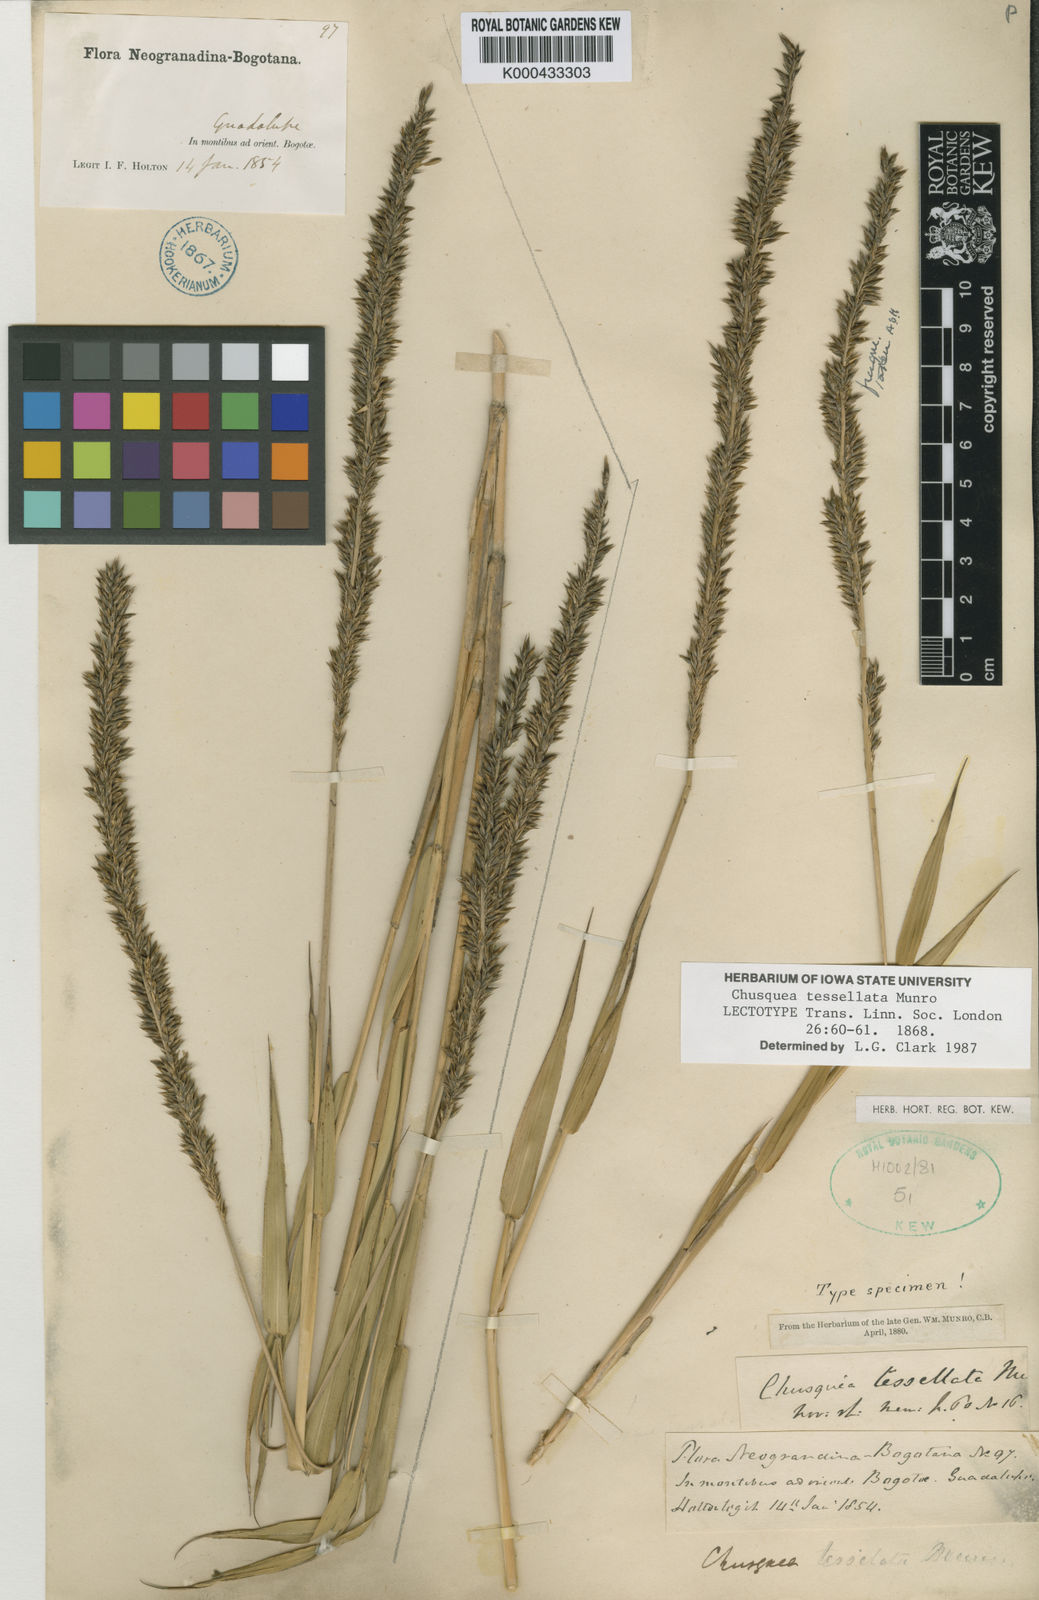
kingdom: Plantae
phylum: Tracheophyta
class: Liliopsida
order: Poales
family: Poaceae
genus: Chusquea
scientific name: Chusquea tessellata
